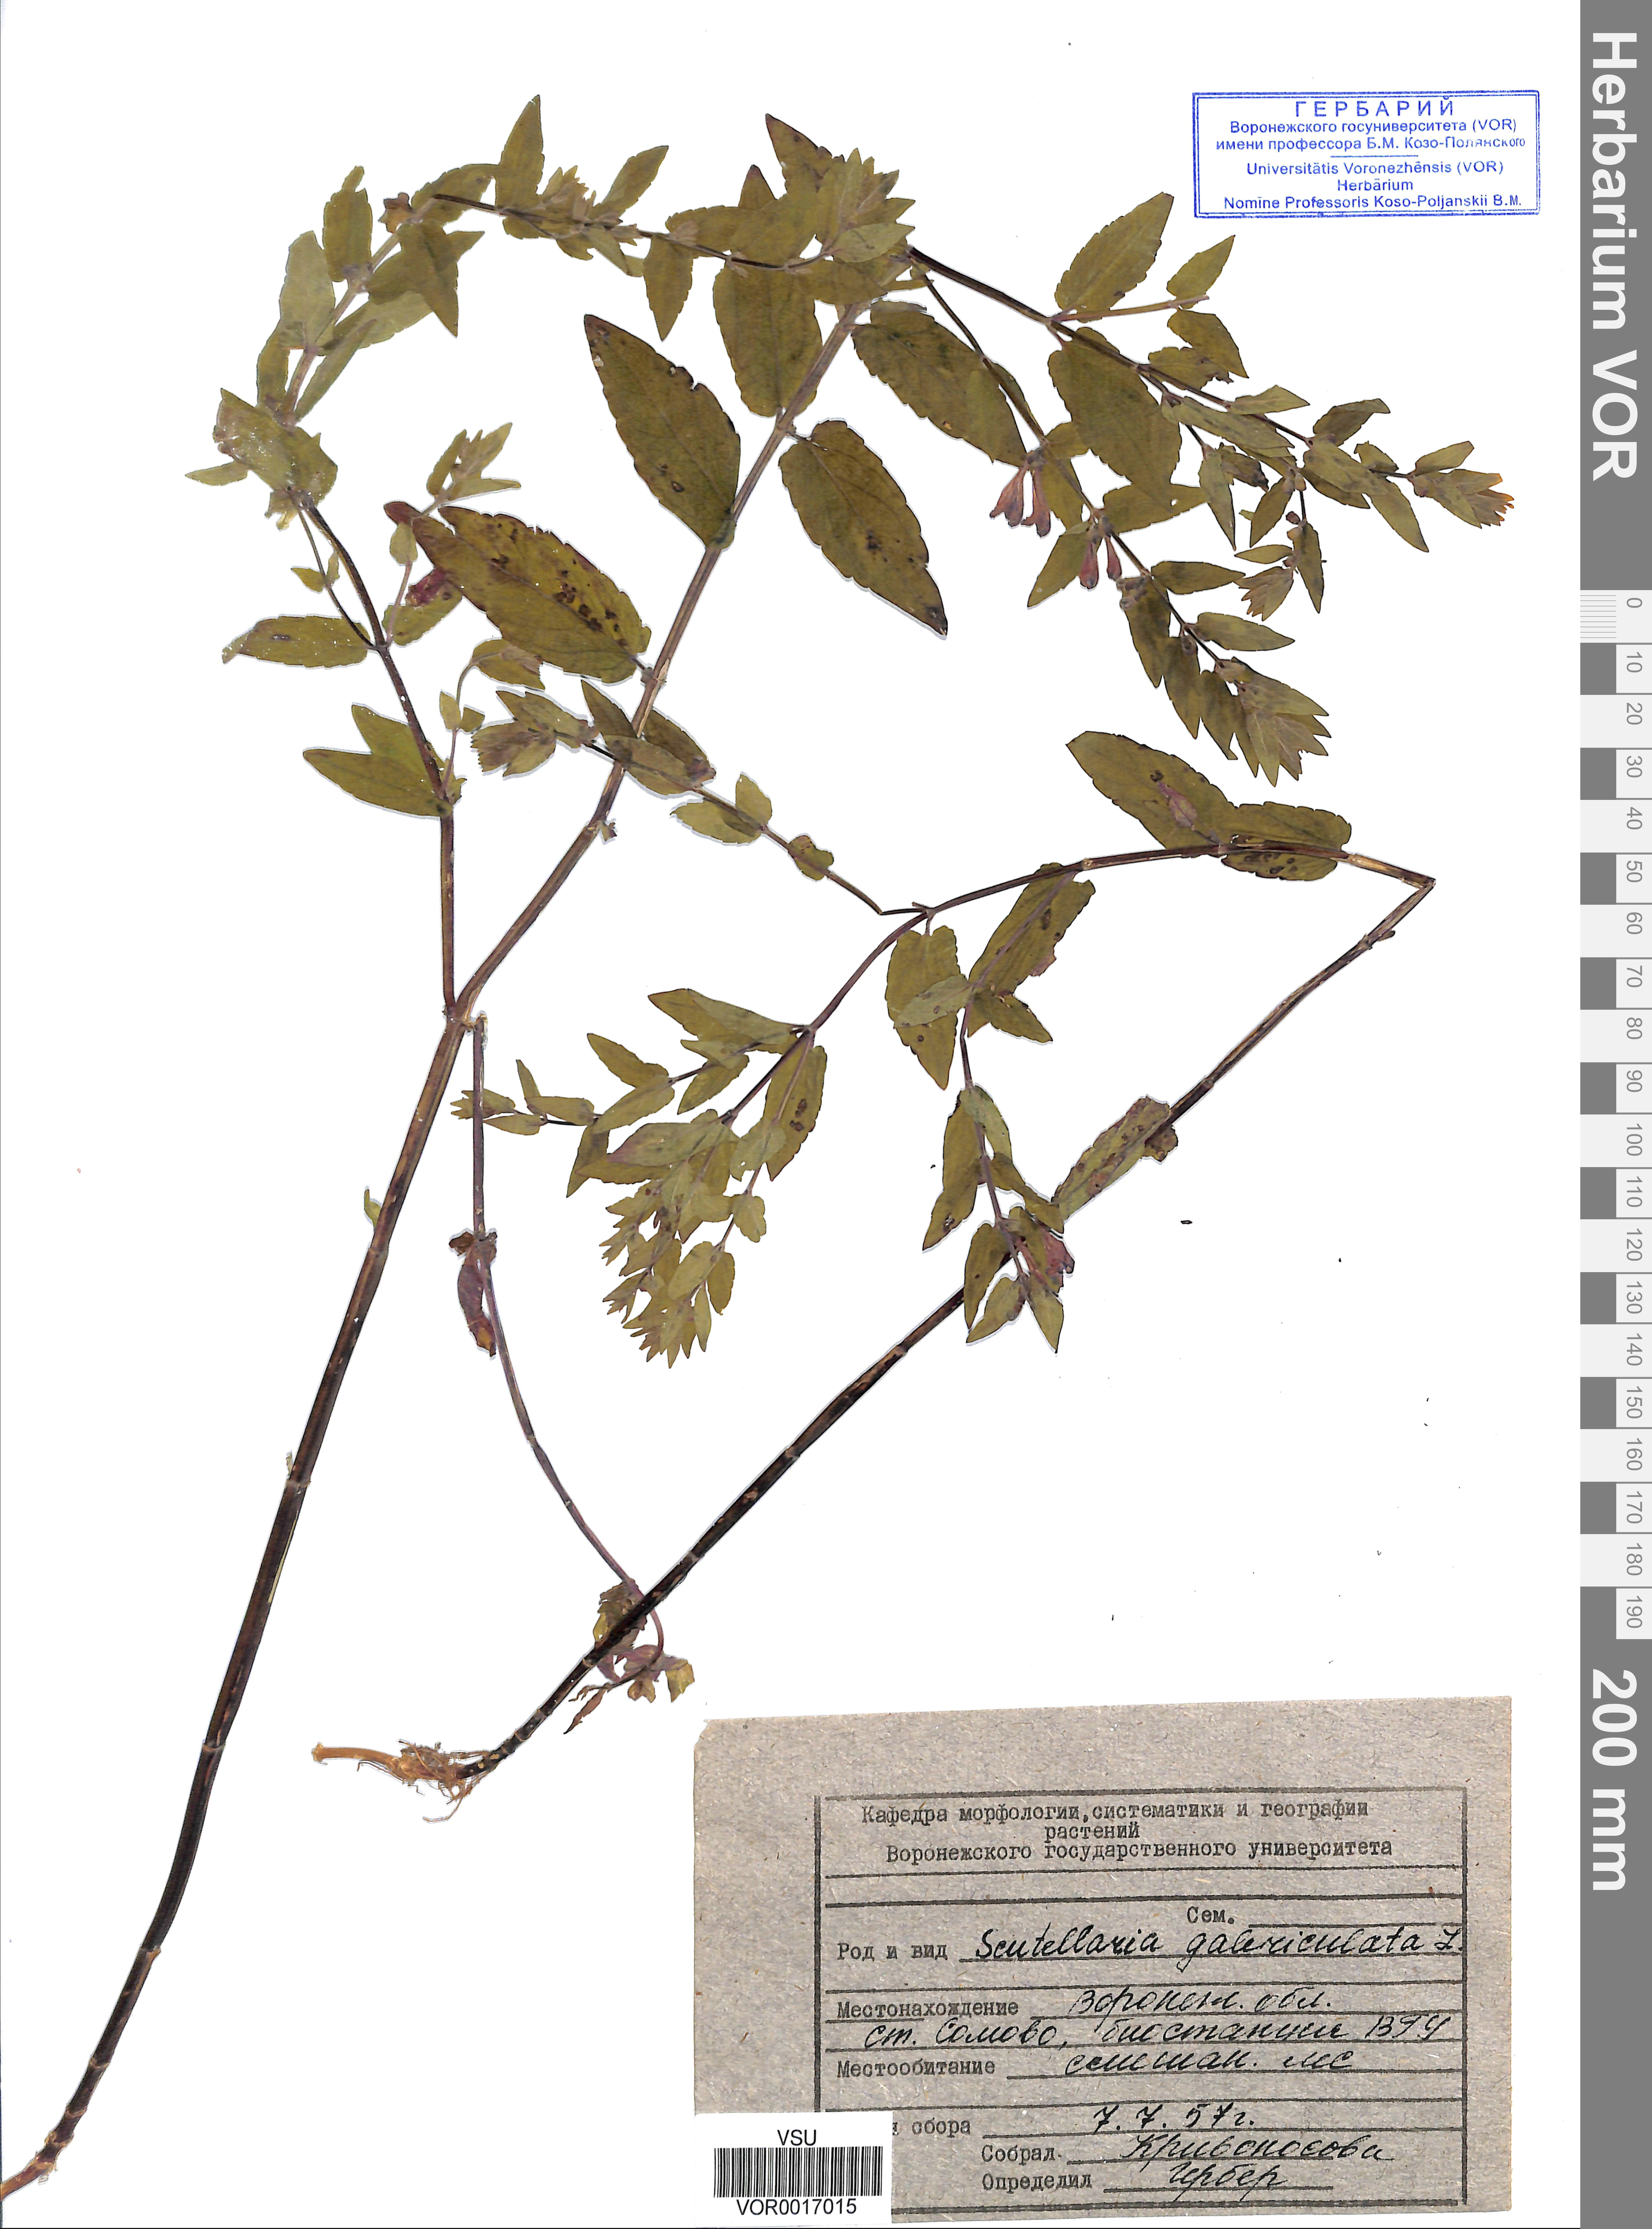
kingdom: Plantae
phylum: Tracheophyta
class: Magnoliopsida
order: Lamiales
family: Lamiaceae
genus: Scutellaria
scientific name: Scutellaria galericulata
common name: Skullcap
